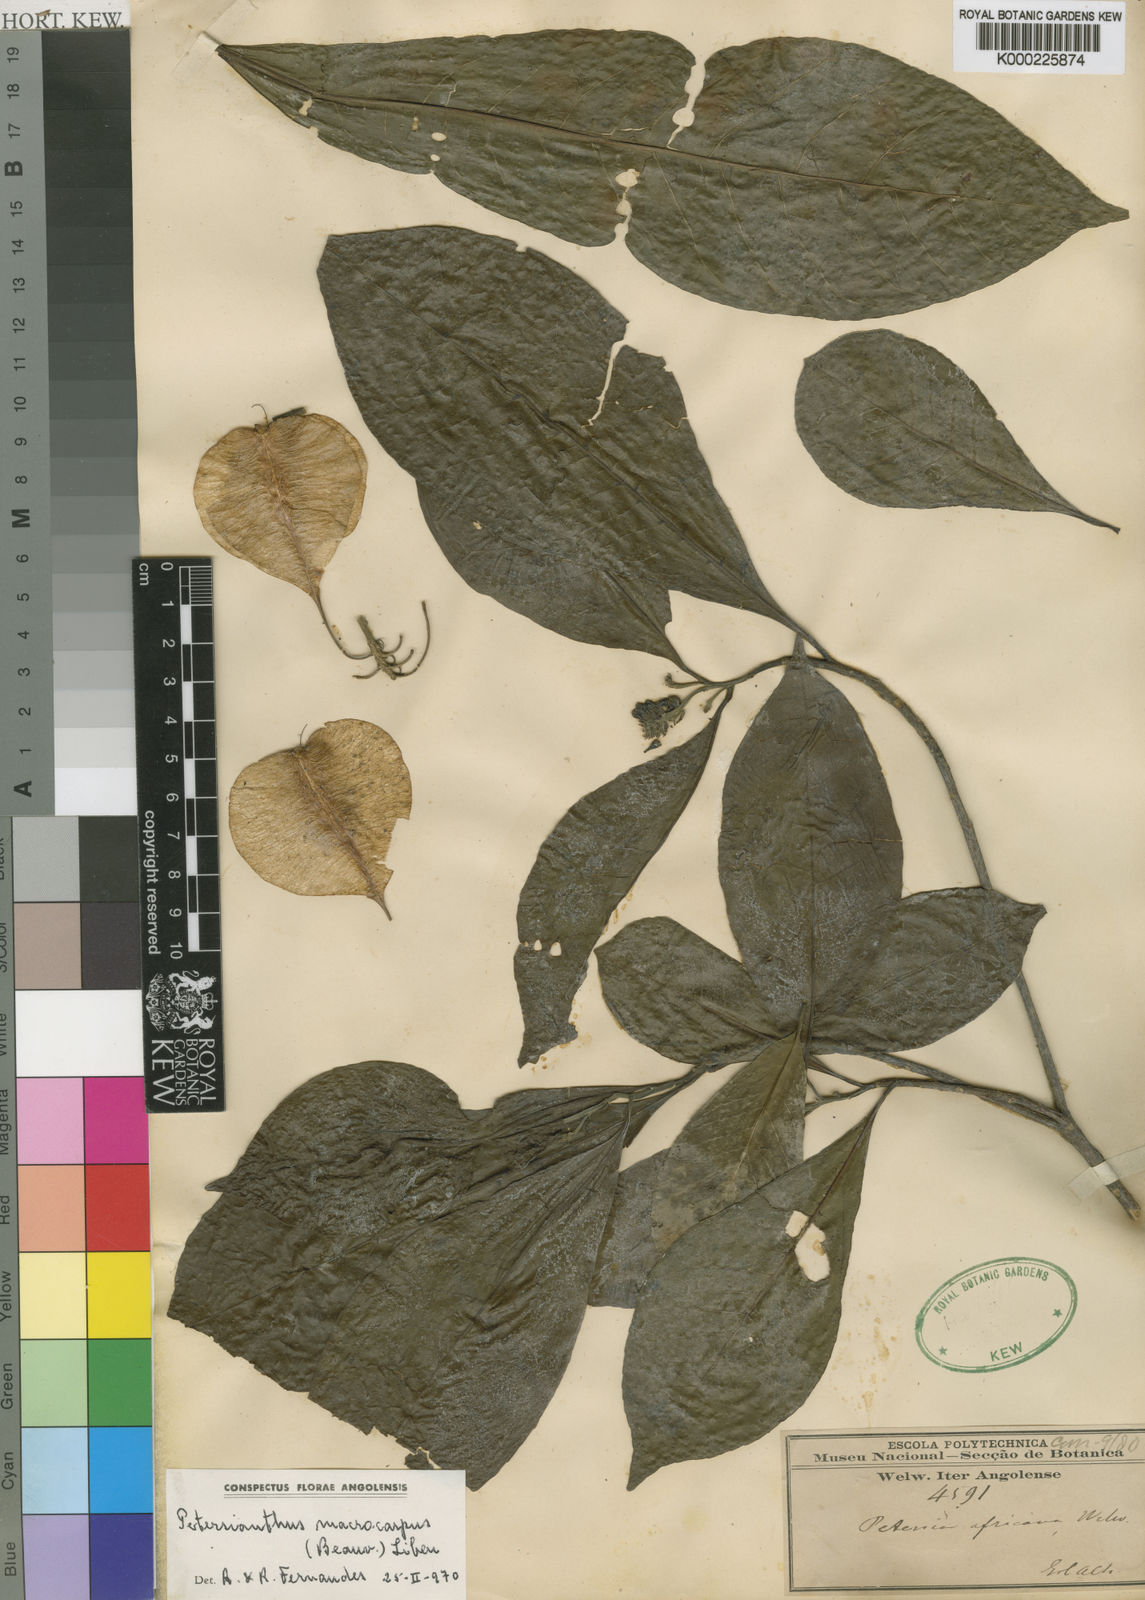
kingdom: Plantae
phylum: Tracheophyta
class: Magnoliopsida
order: Ericales
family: Lecythidaceae
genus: Petersianthus
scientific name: Petersianthus macrocarpus
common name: Essia
